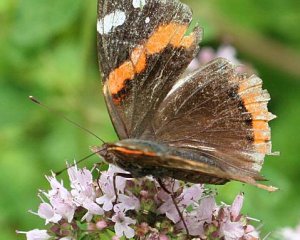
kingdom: Animalia
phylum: Arthropoda
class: Insecta
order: Lepidoptera
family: Nymphalidae
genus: Vanessa
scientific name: Vanessa atalanta
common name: Red Admiral
